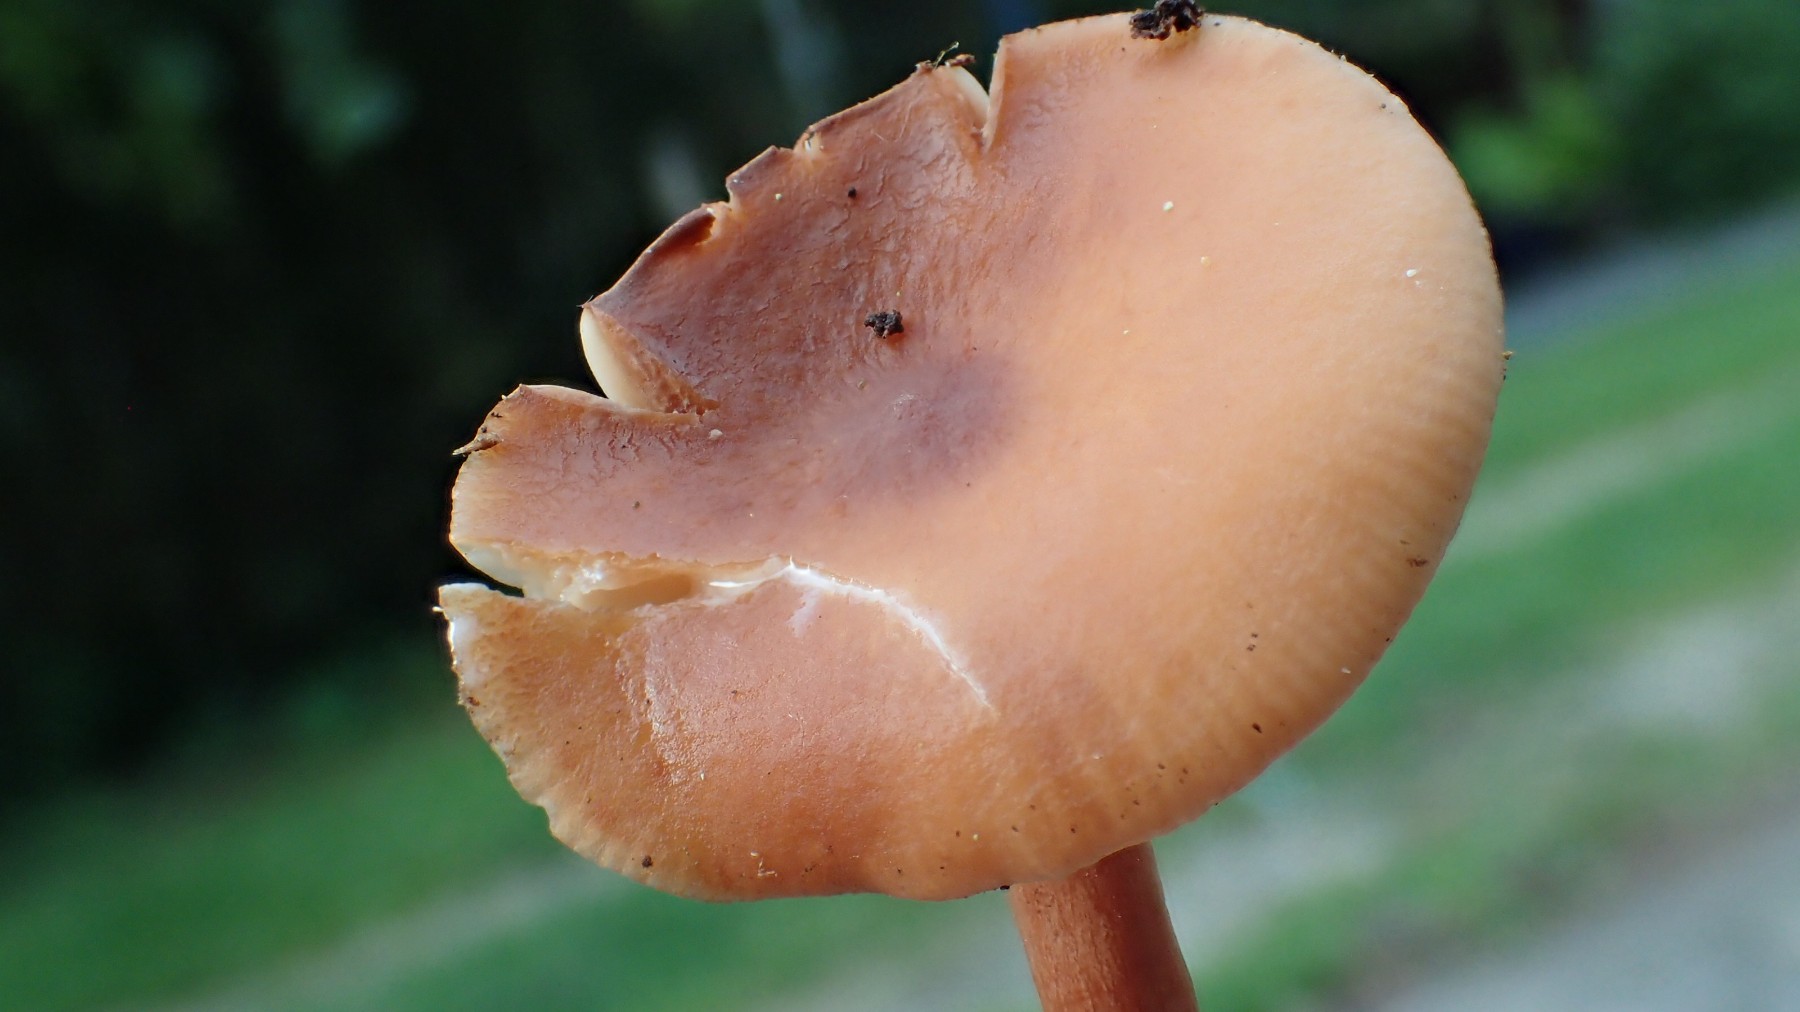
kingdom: Fungi
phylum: Basidiomycota
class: Agaricomycetes
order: Russulales
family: Russulaceae
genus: Lactarius
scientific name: Lactarius tabidus
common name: rynket mælkehat
